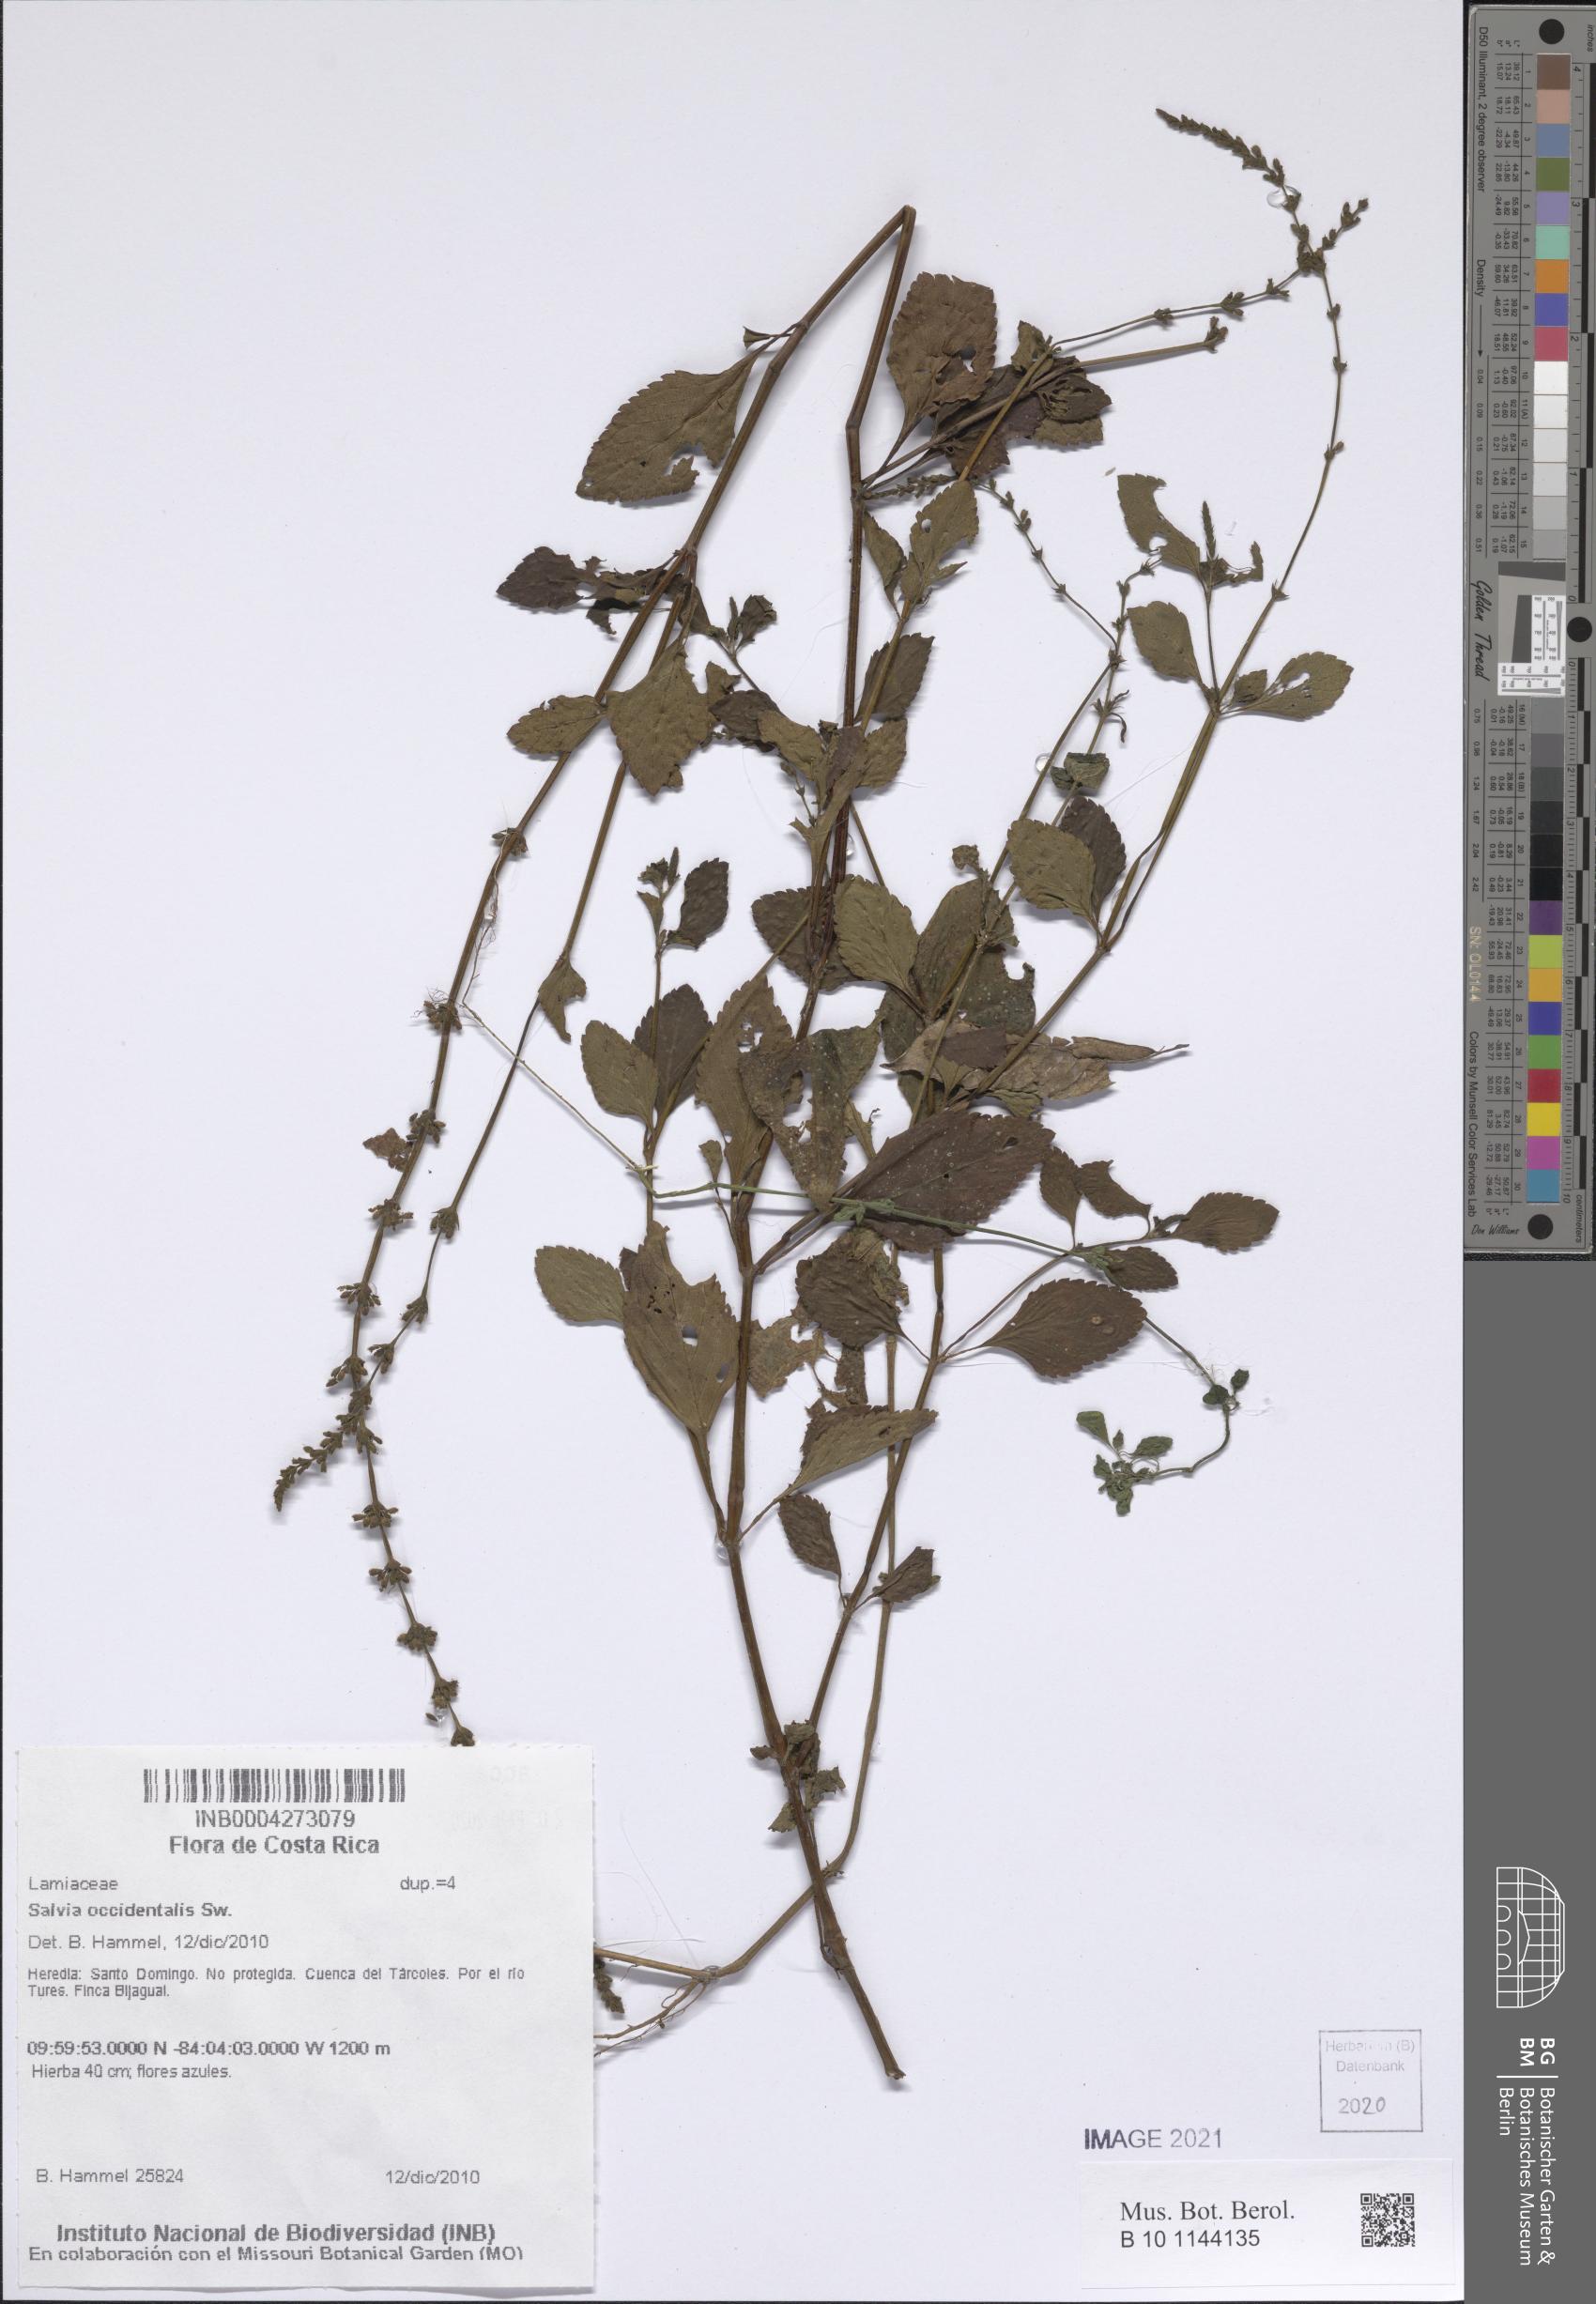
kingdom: Plantae
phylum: Tracheophyta
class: Magnoliopsida
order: Lamiales
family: Lamiaceae
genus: Salvia
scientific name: Salvia occidentalis
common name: West indian sage
